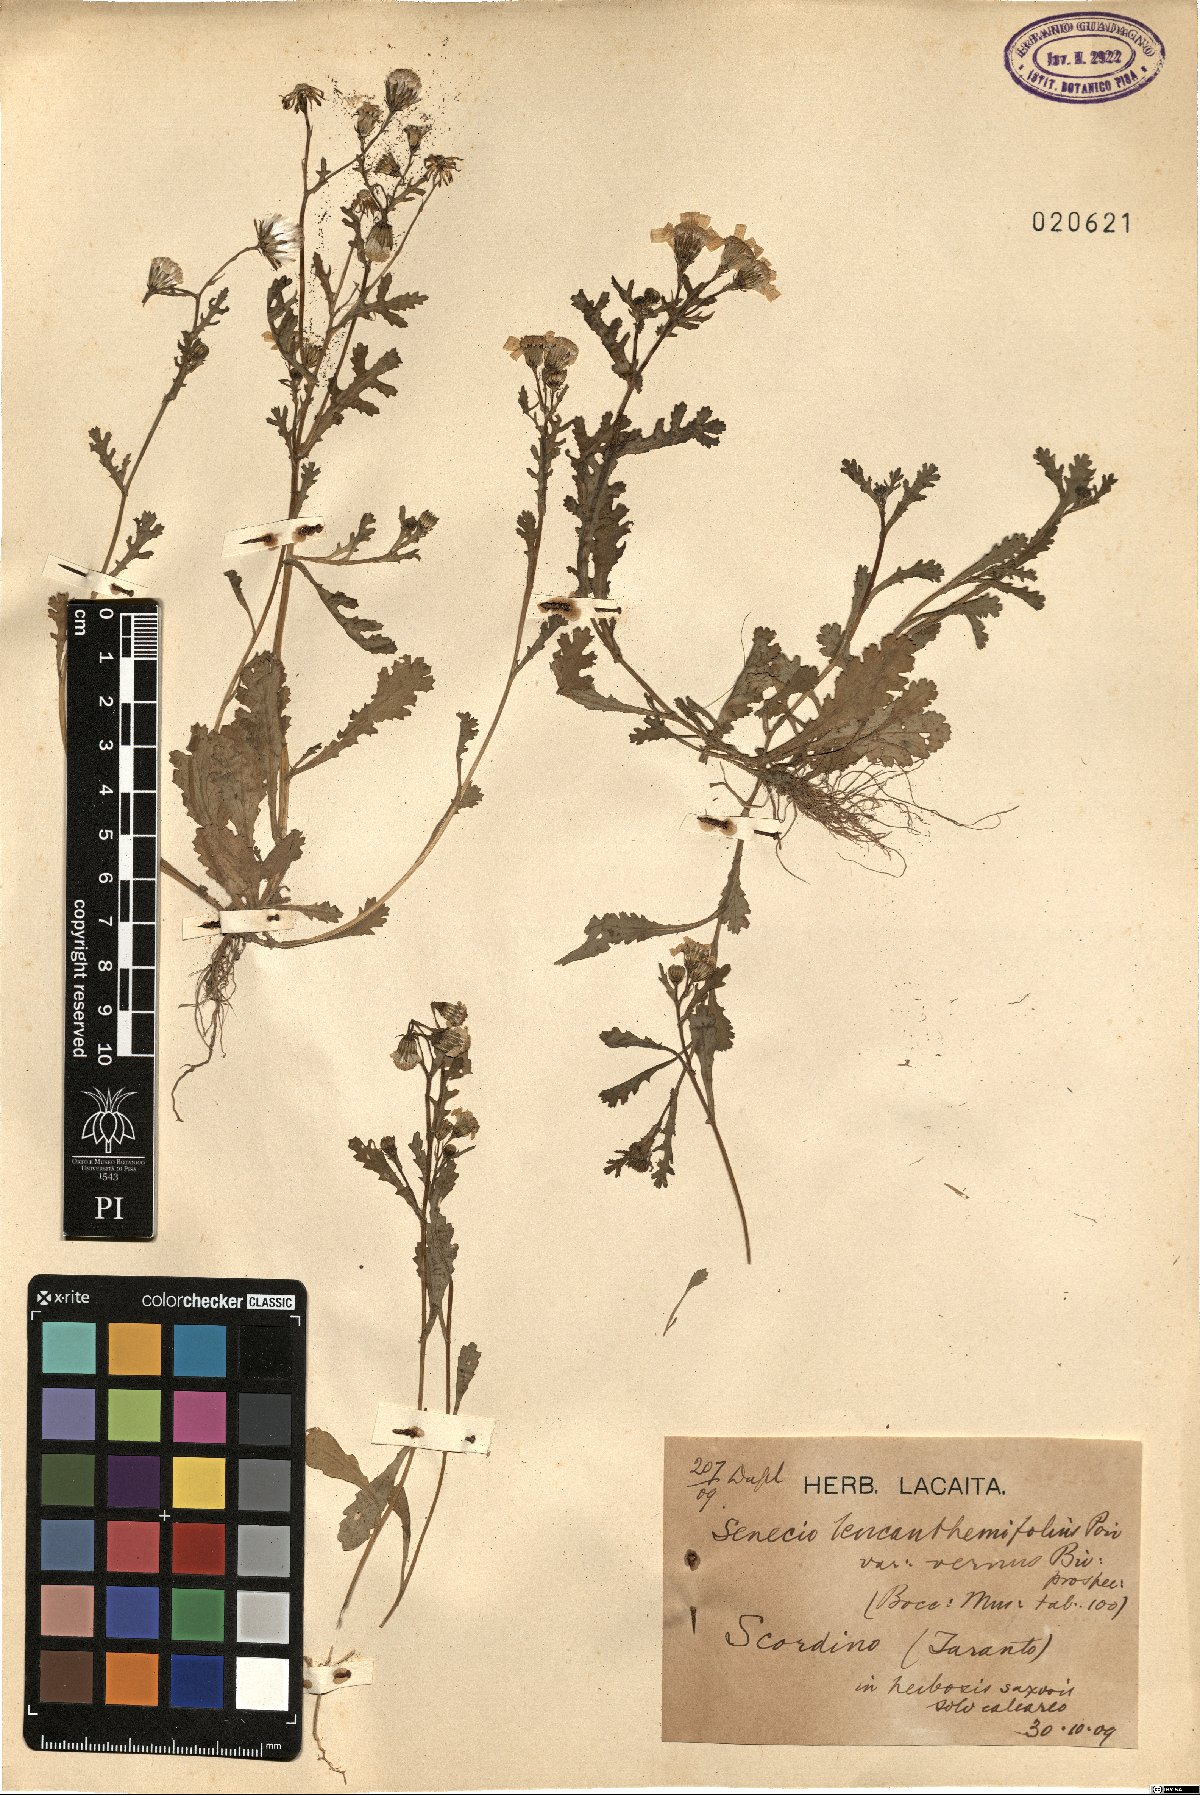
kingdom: Plantae
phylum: Tracheophyta
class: Magnoliopsida
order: Asterales
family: Asteraceae
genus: Senecio
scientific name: Senecio leucanthemifolius
